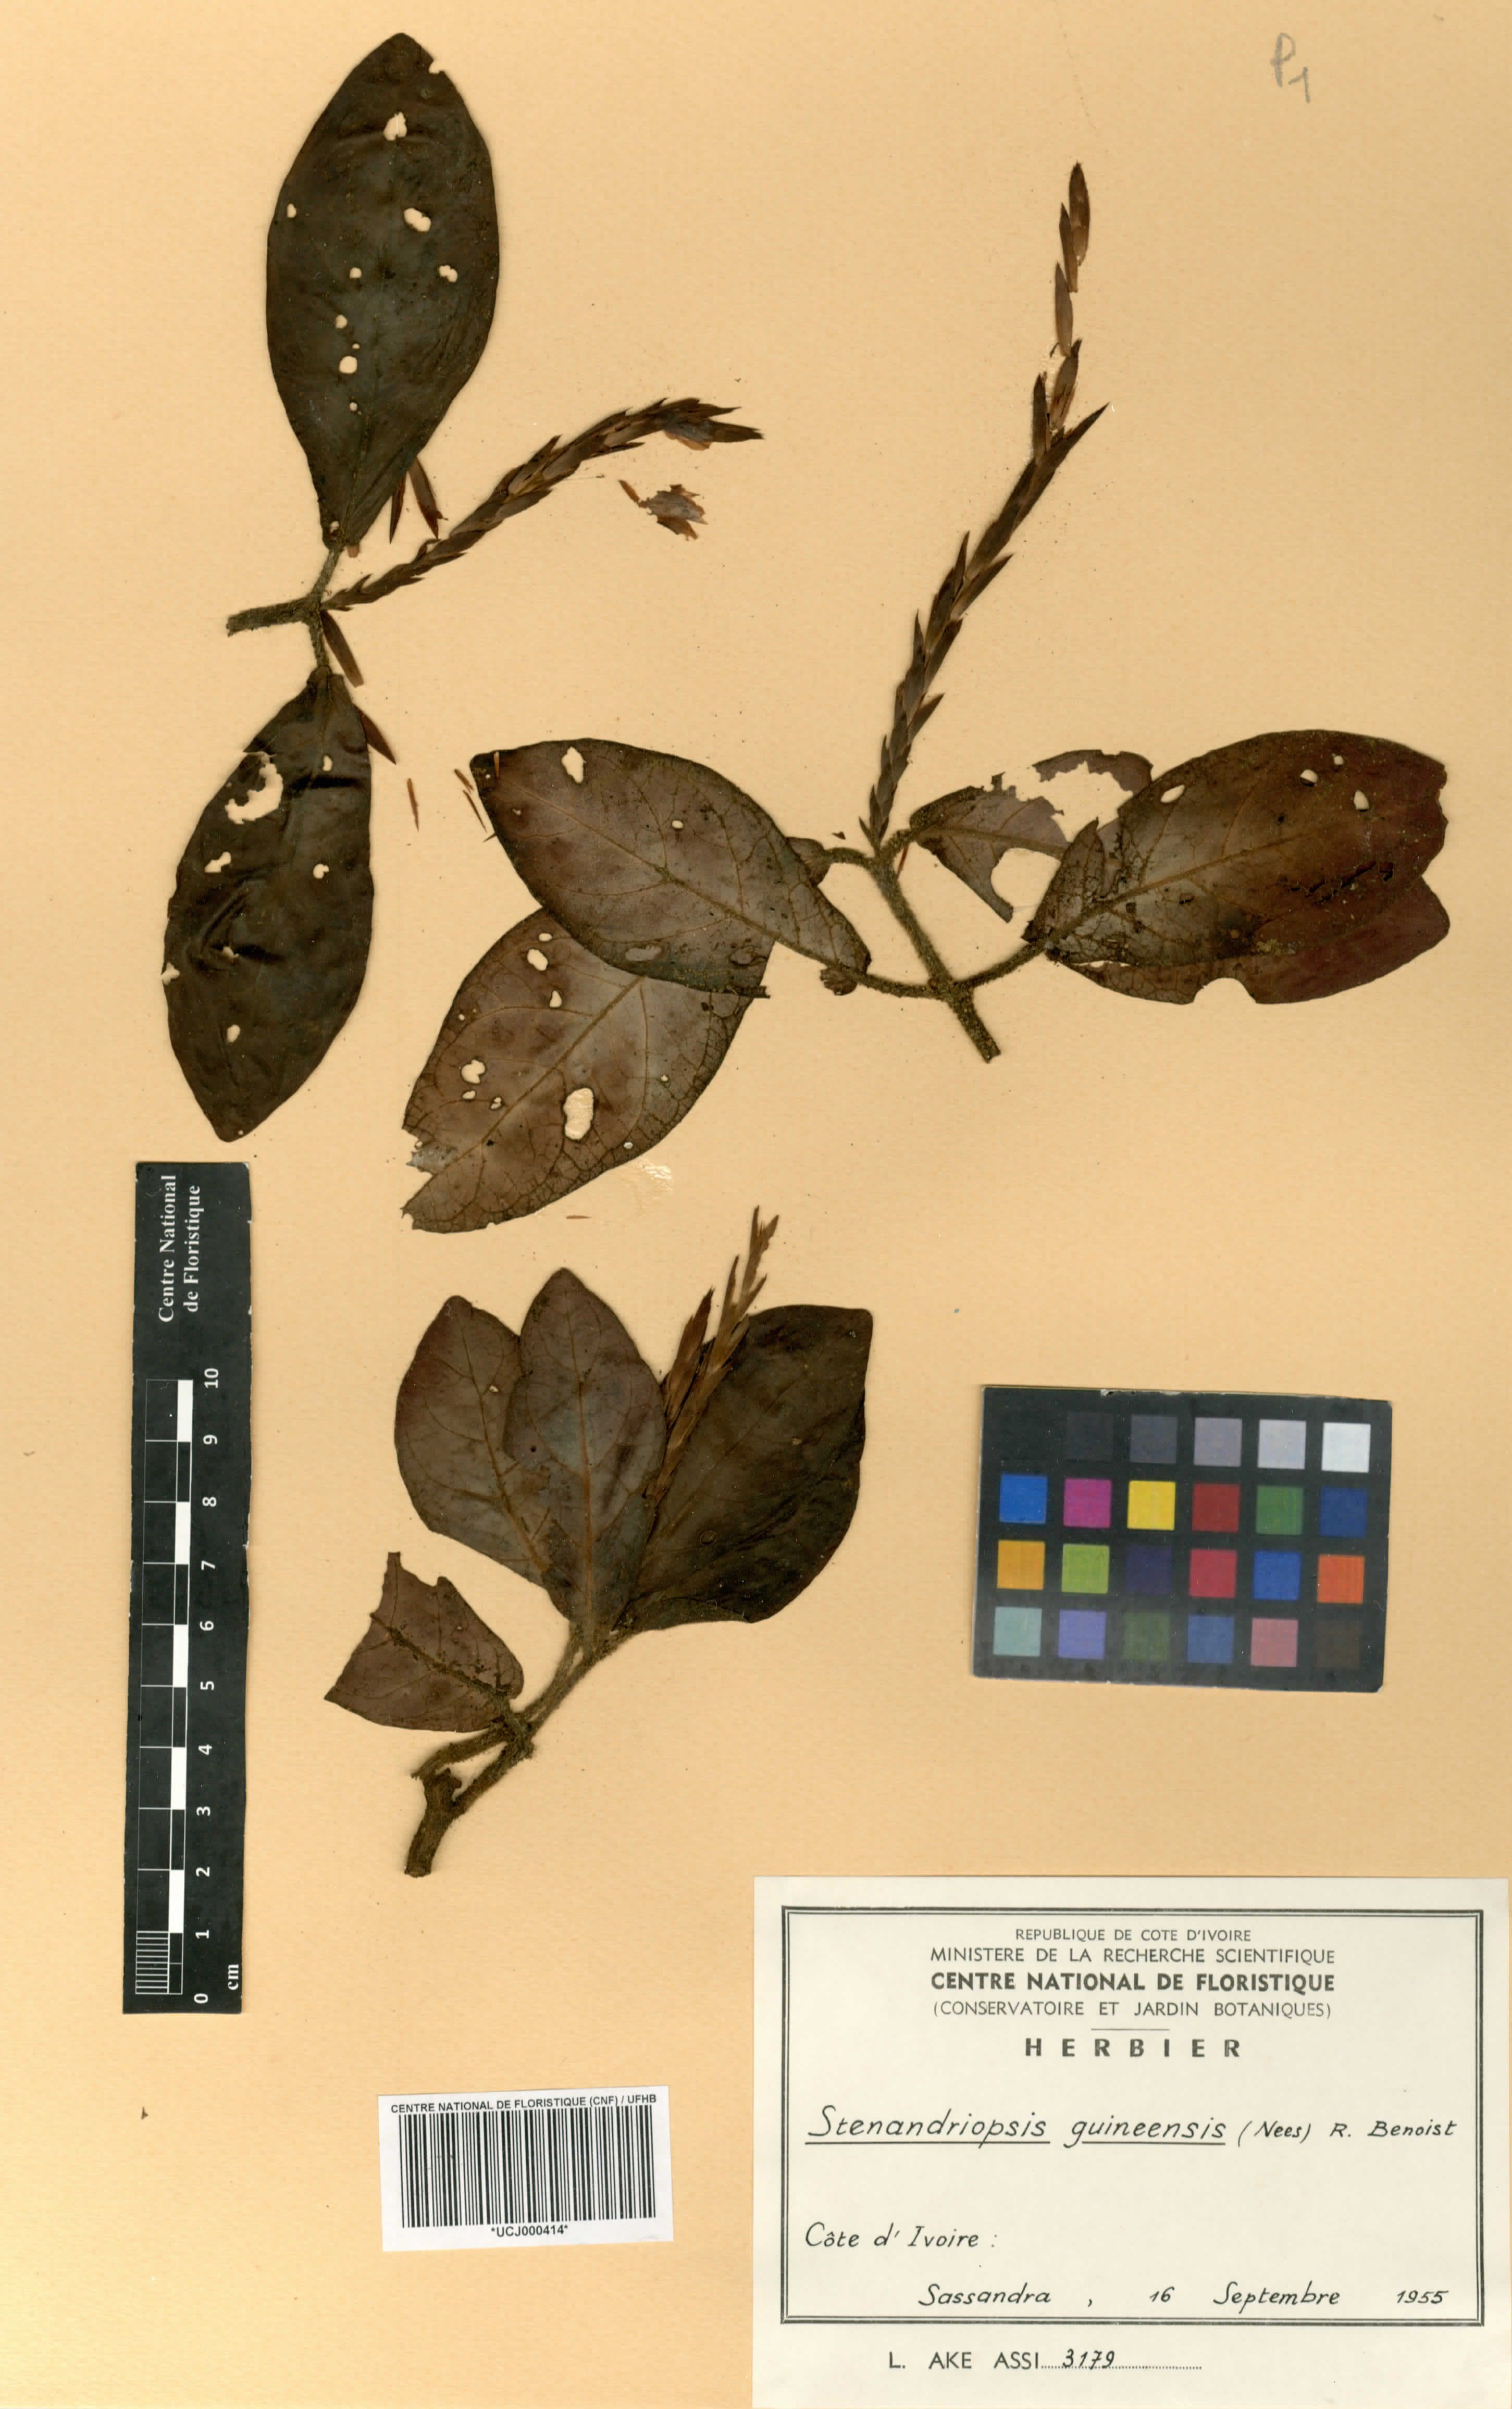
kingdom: Plantae
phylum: Tracheophyta
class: Magnoliopsida
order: Lamiales
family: Acanthaceae
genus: Stenandriopsis
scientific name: Stenandriopsis guineensis
